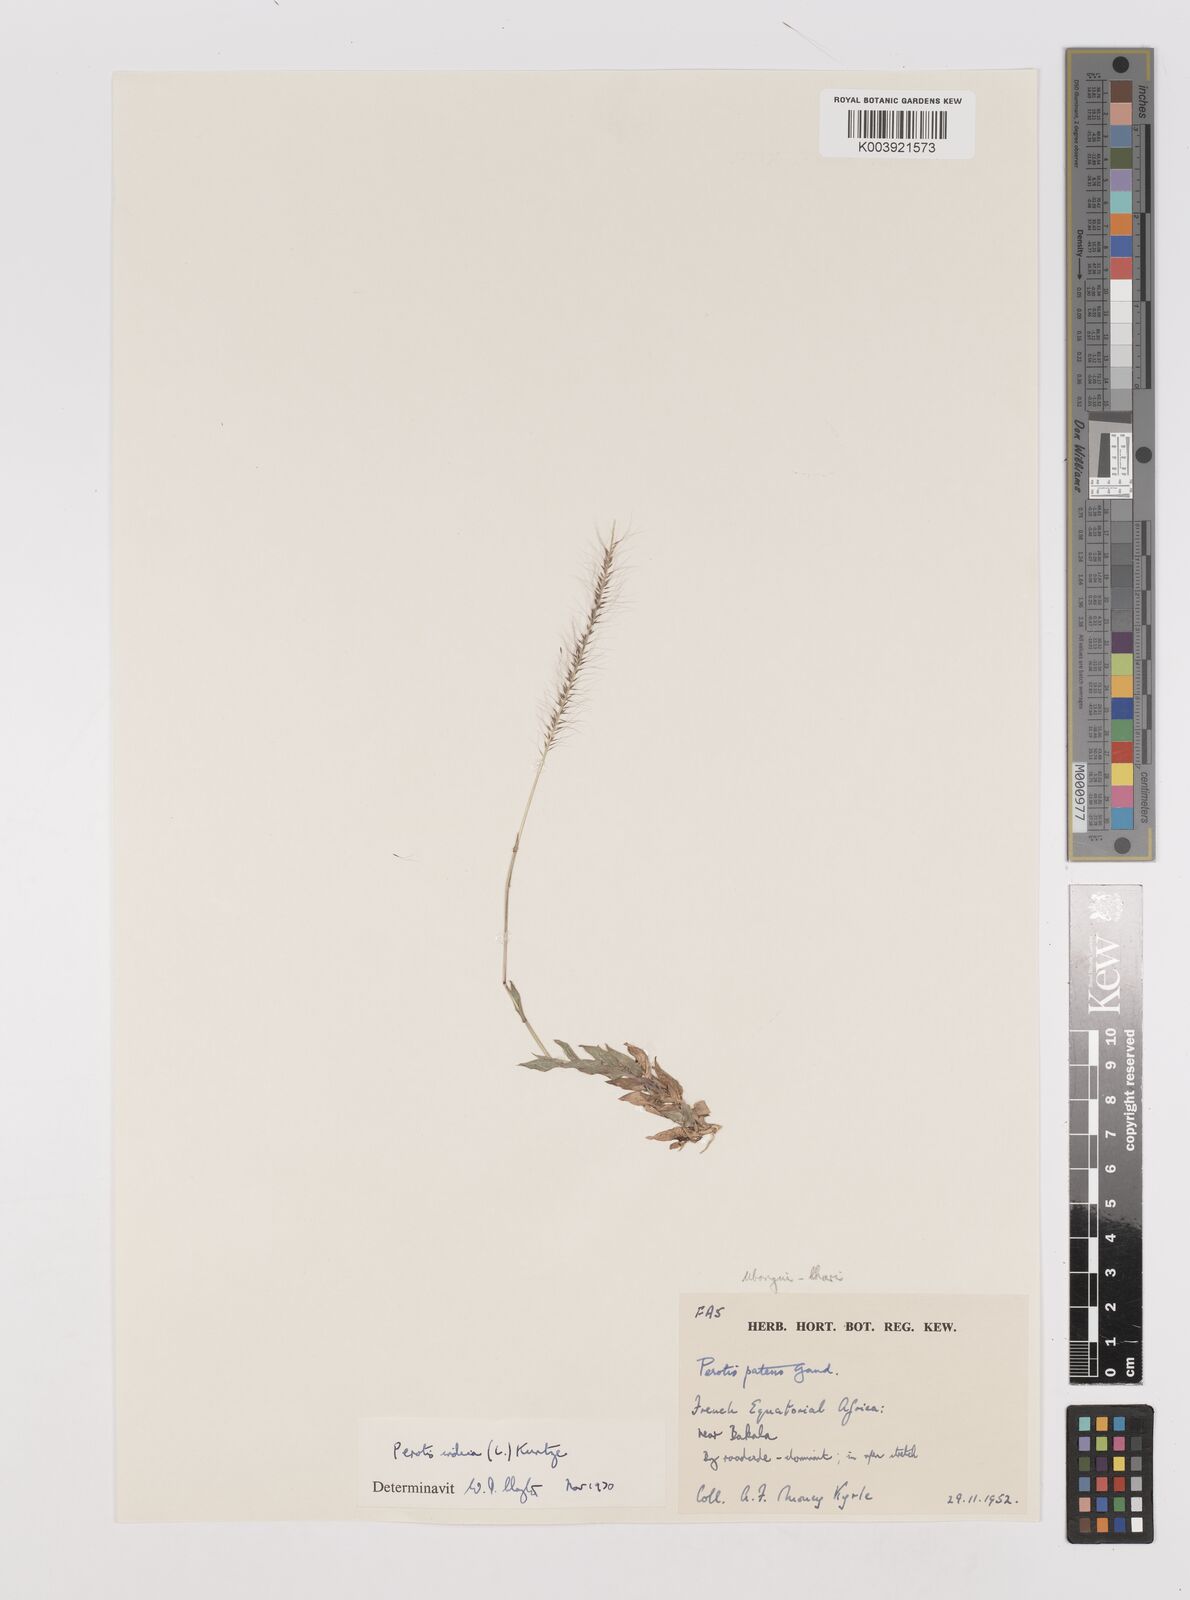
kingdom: Plantae
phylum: Tracheophyta
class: Liliopsida
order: Poales
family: Poaceae
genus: Perotis
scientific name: Perotis indica
